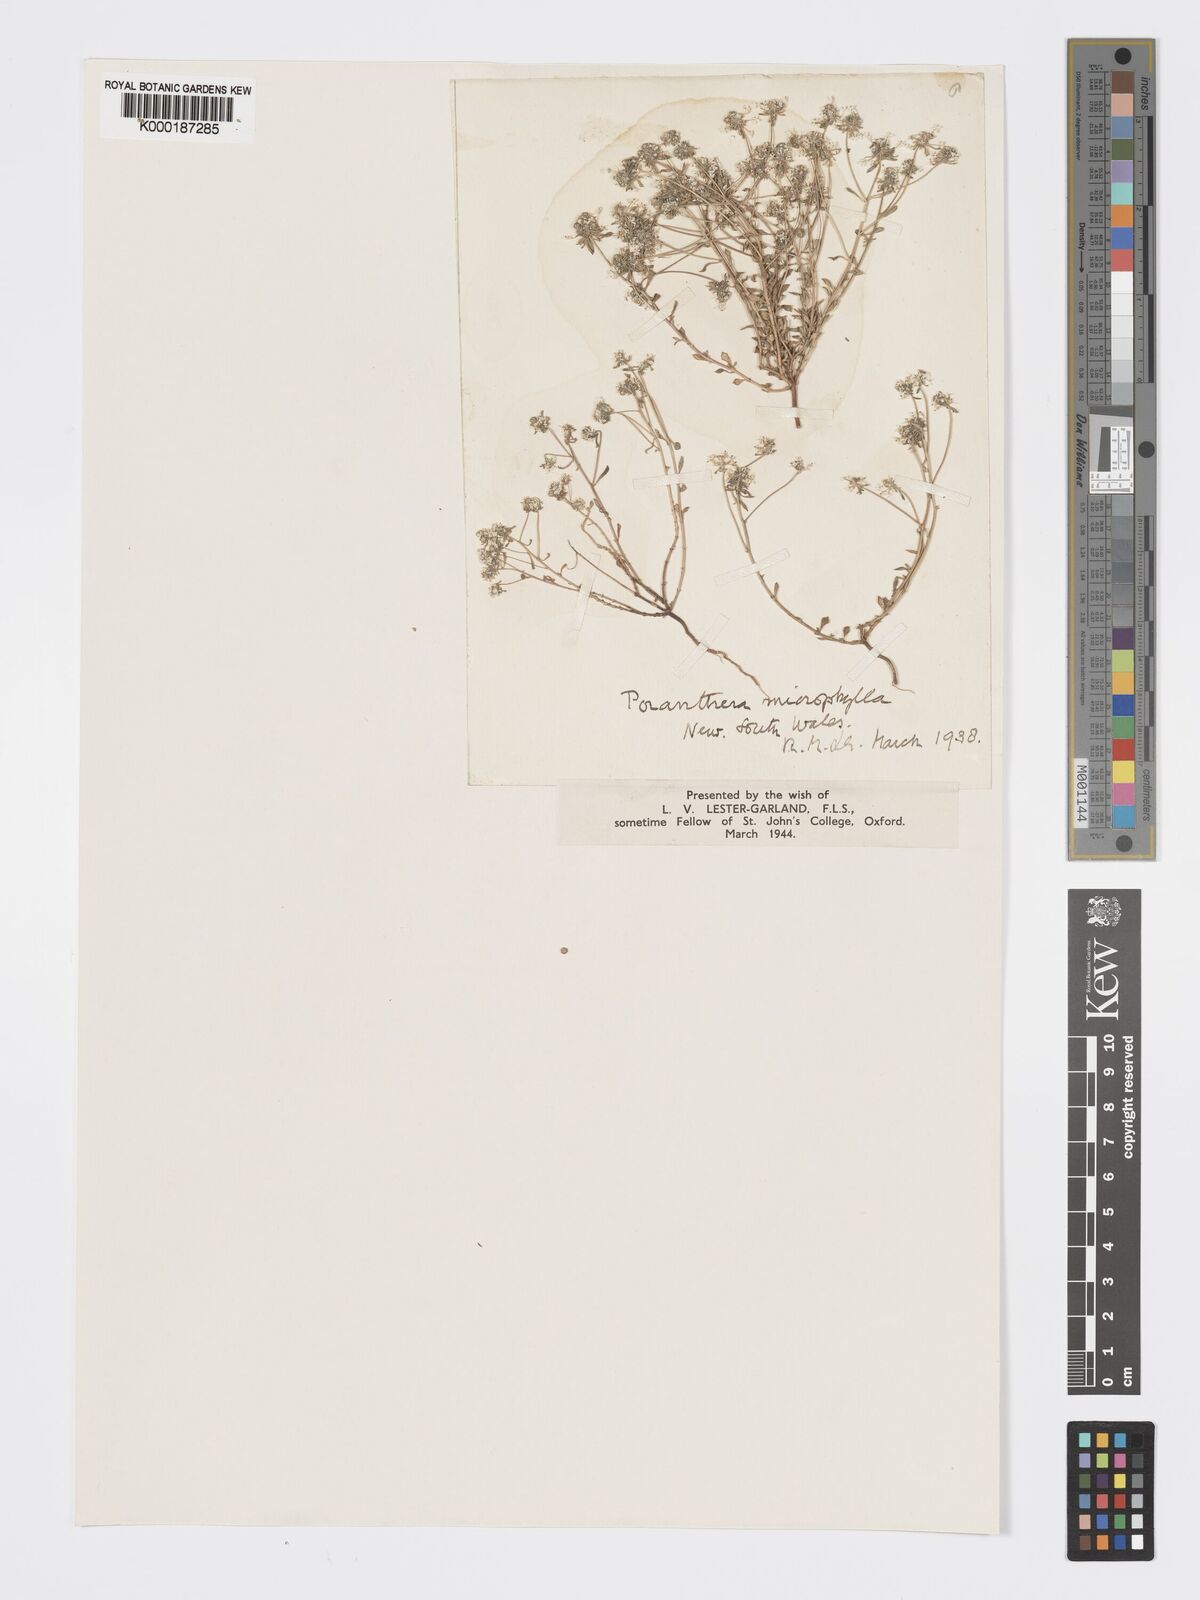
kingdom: Plantae
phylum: Tracheophyta
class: Magnoliopsida
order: Malpighiales
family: Phyllanthaceae
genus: Poranthera
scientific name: Poranthera microphylla
